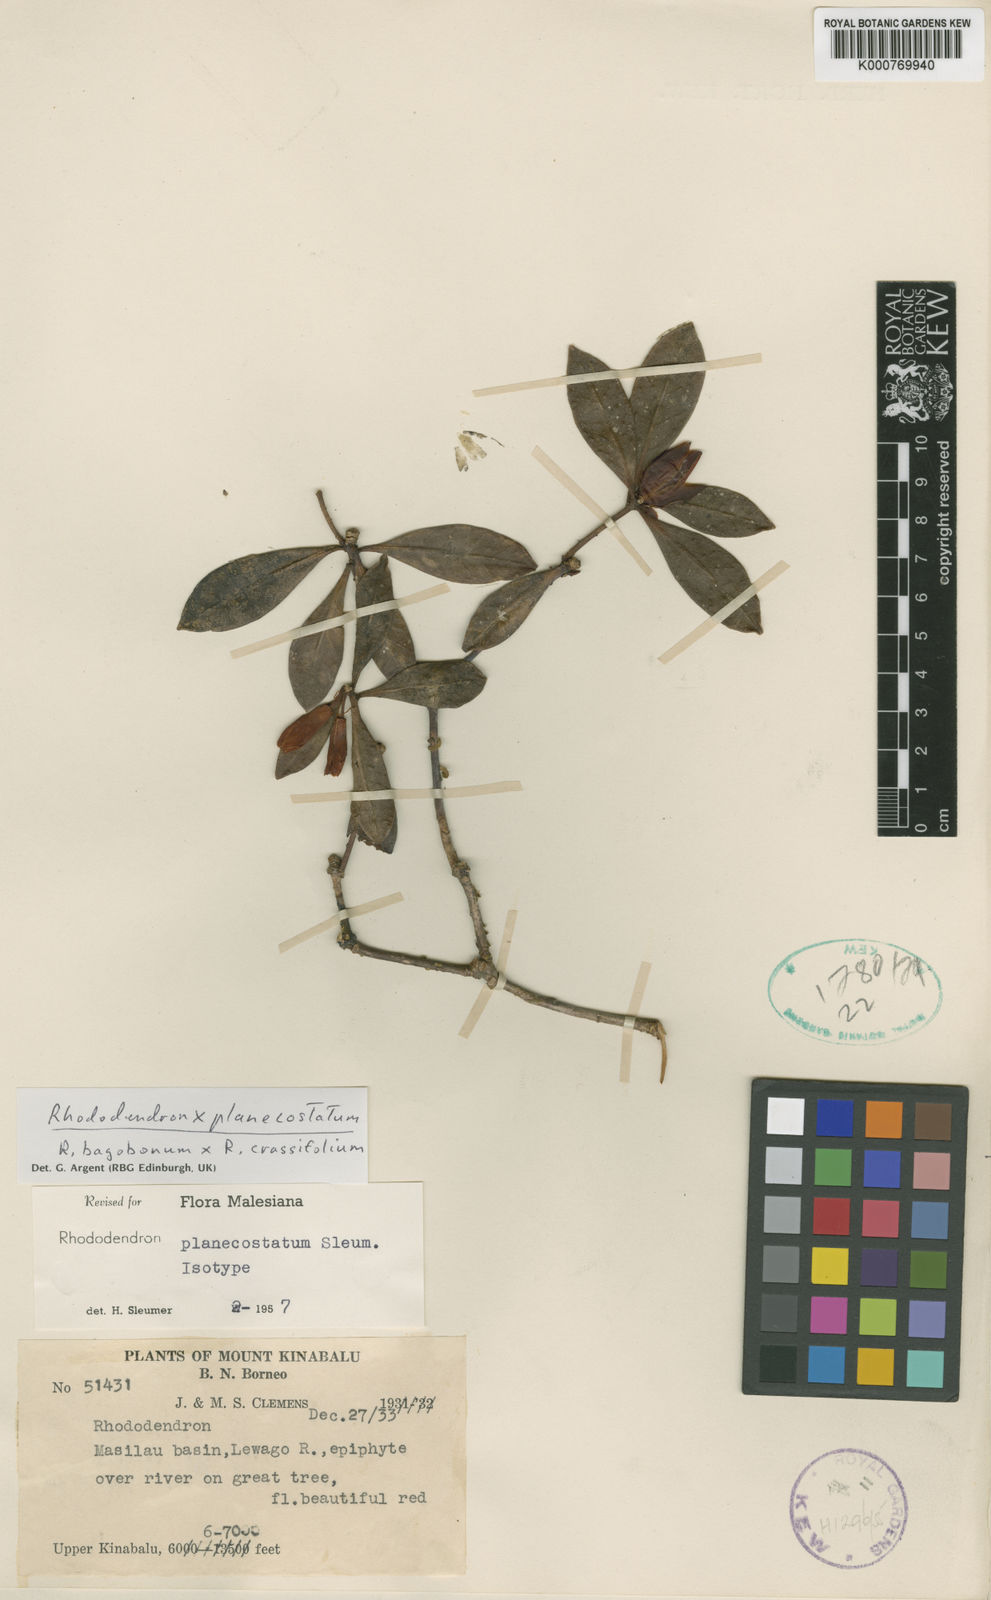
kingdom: Plantae
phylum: Tracheophyta
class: Magnoliopsida
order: Ericales
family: Ericaceae
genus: Rhododendron
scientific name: Rhododendron planecostatum
